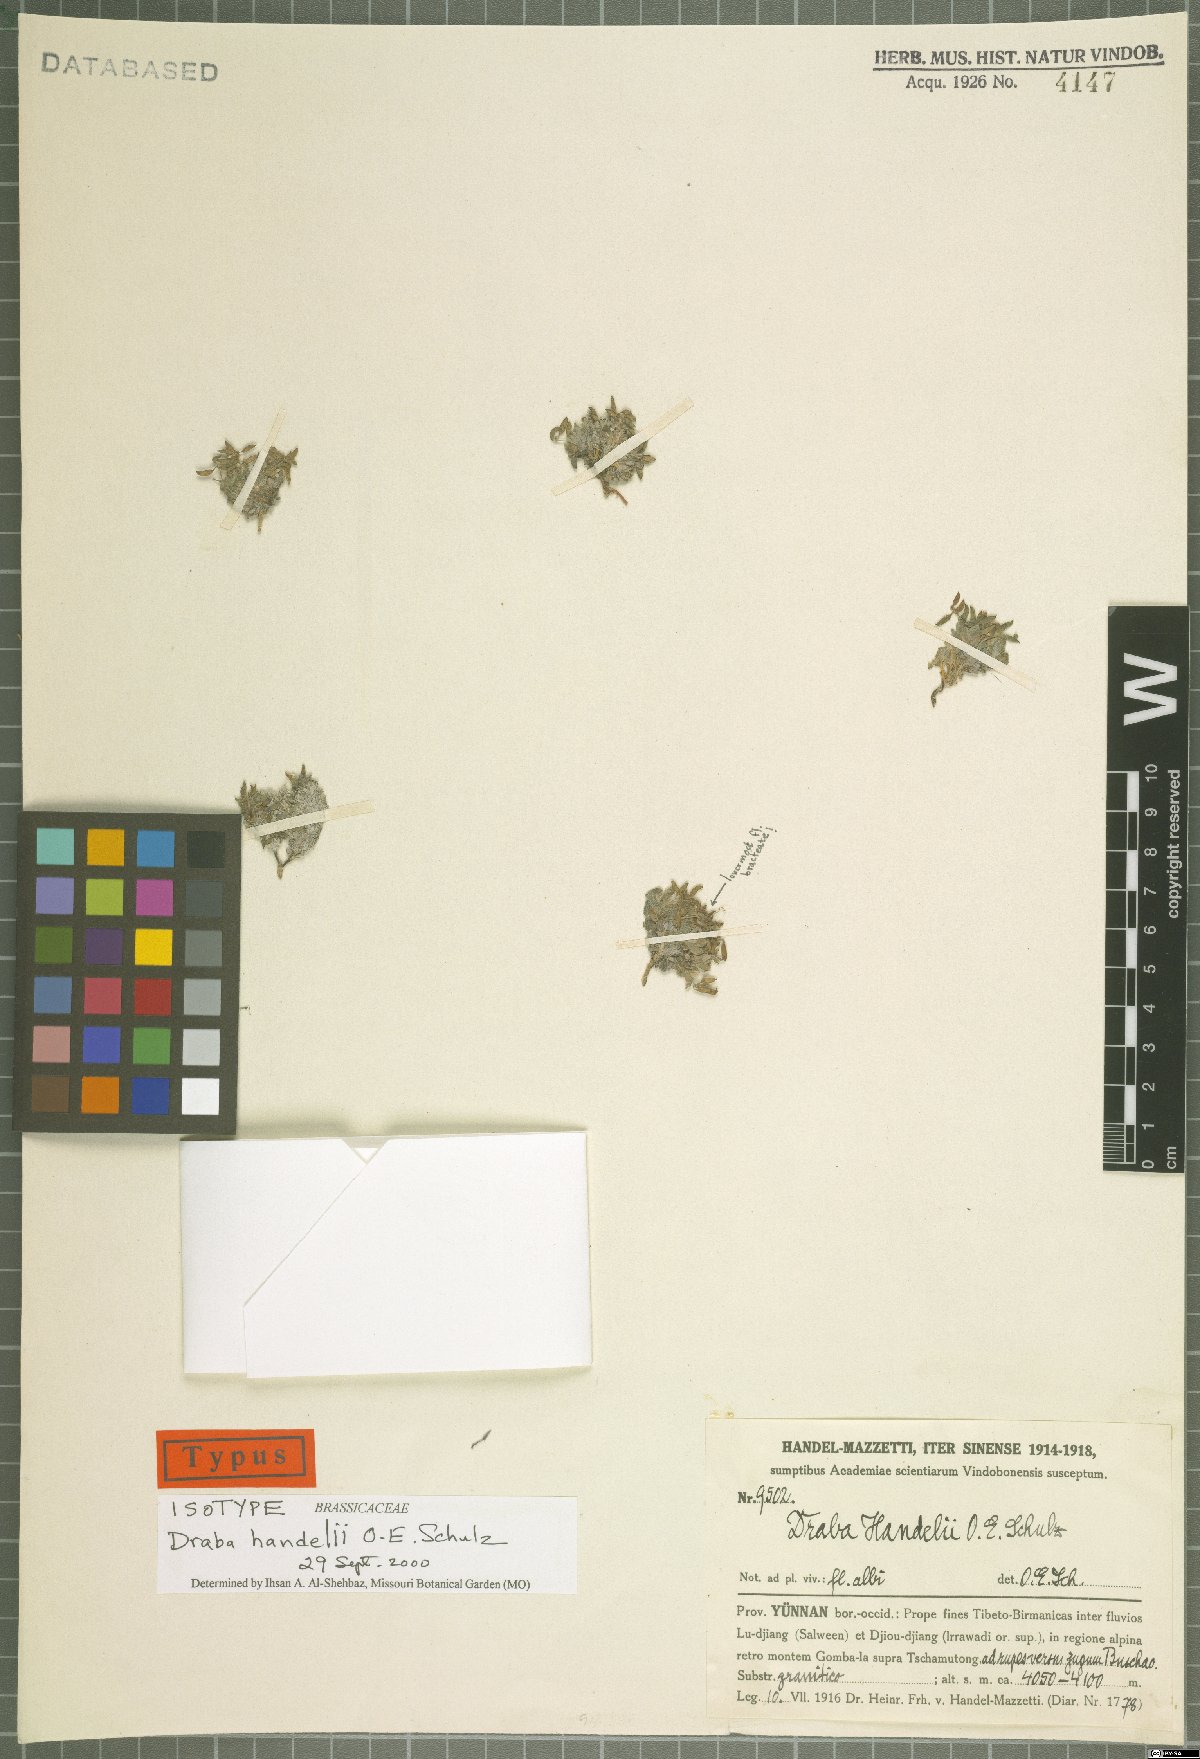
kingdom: Plantae
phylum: Tracheophyta
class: Magnoliopsida
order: Brassicales
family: Brassicaceae
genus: Draba
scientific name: Draba handelii
